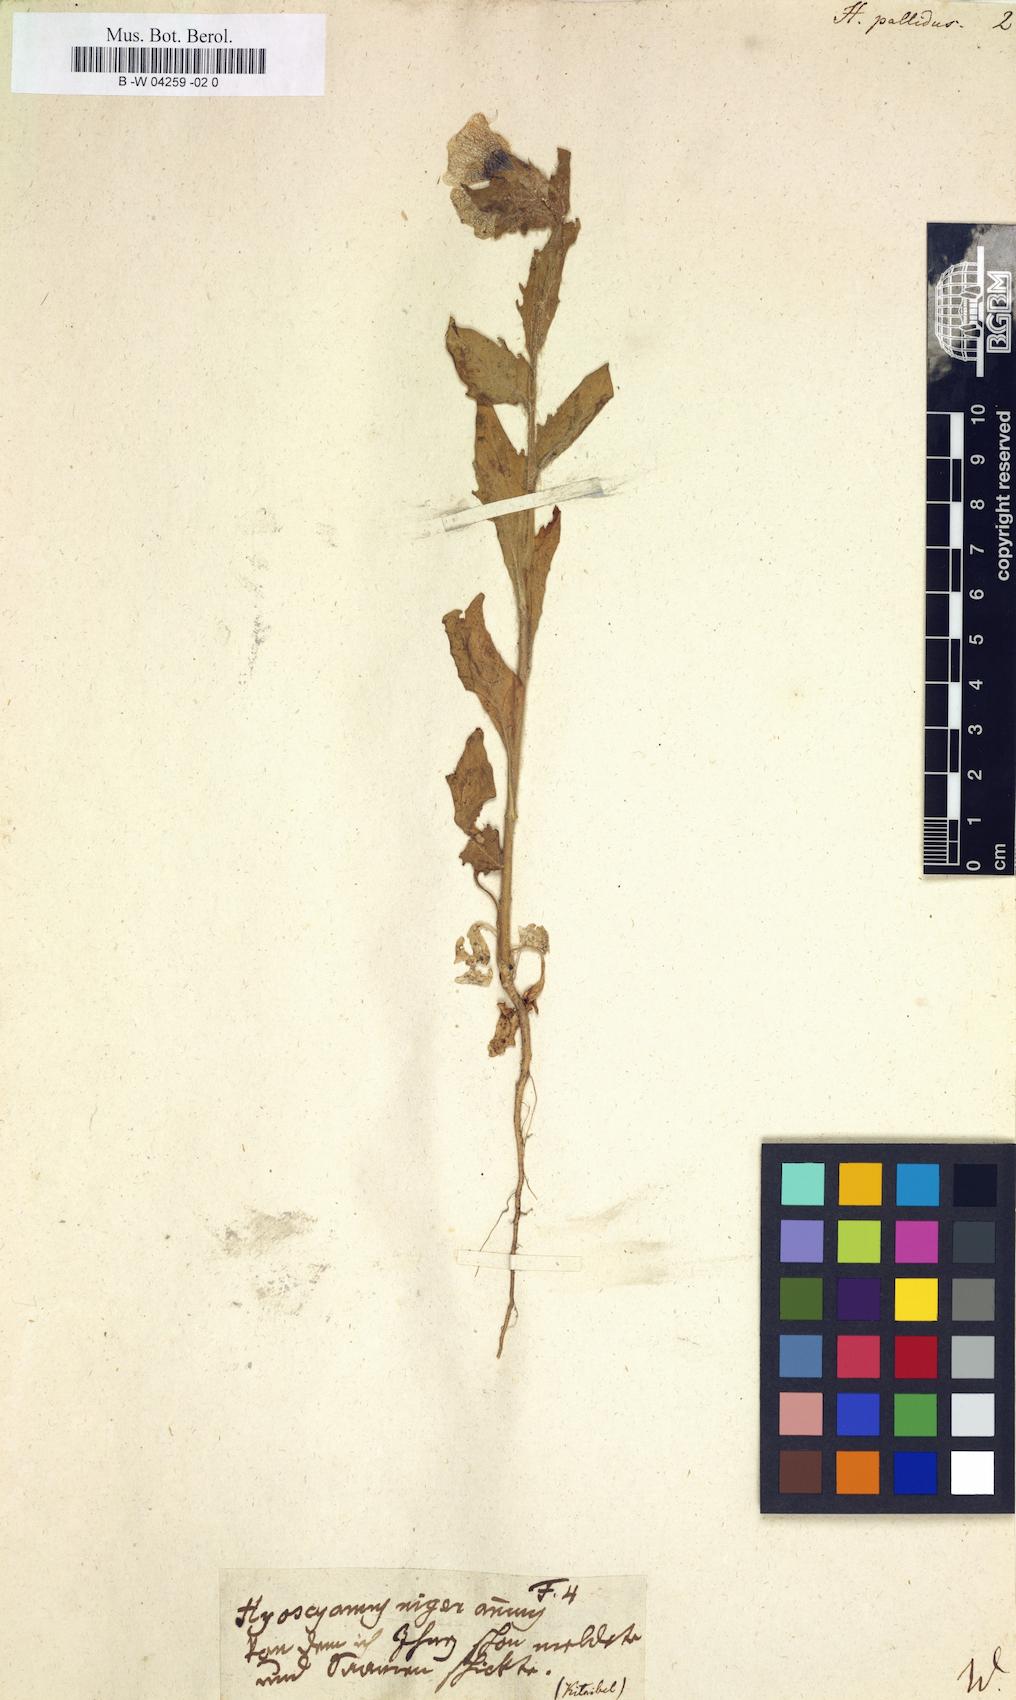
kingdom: Plantae
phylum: Tracheophyta
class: Magnoliopsida
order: Solanales
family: Solanaceae
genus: Hyoscyamus
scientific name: Hyoscyamus niger
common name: Henbane
